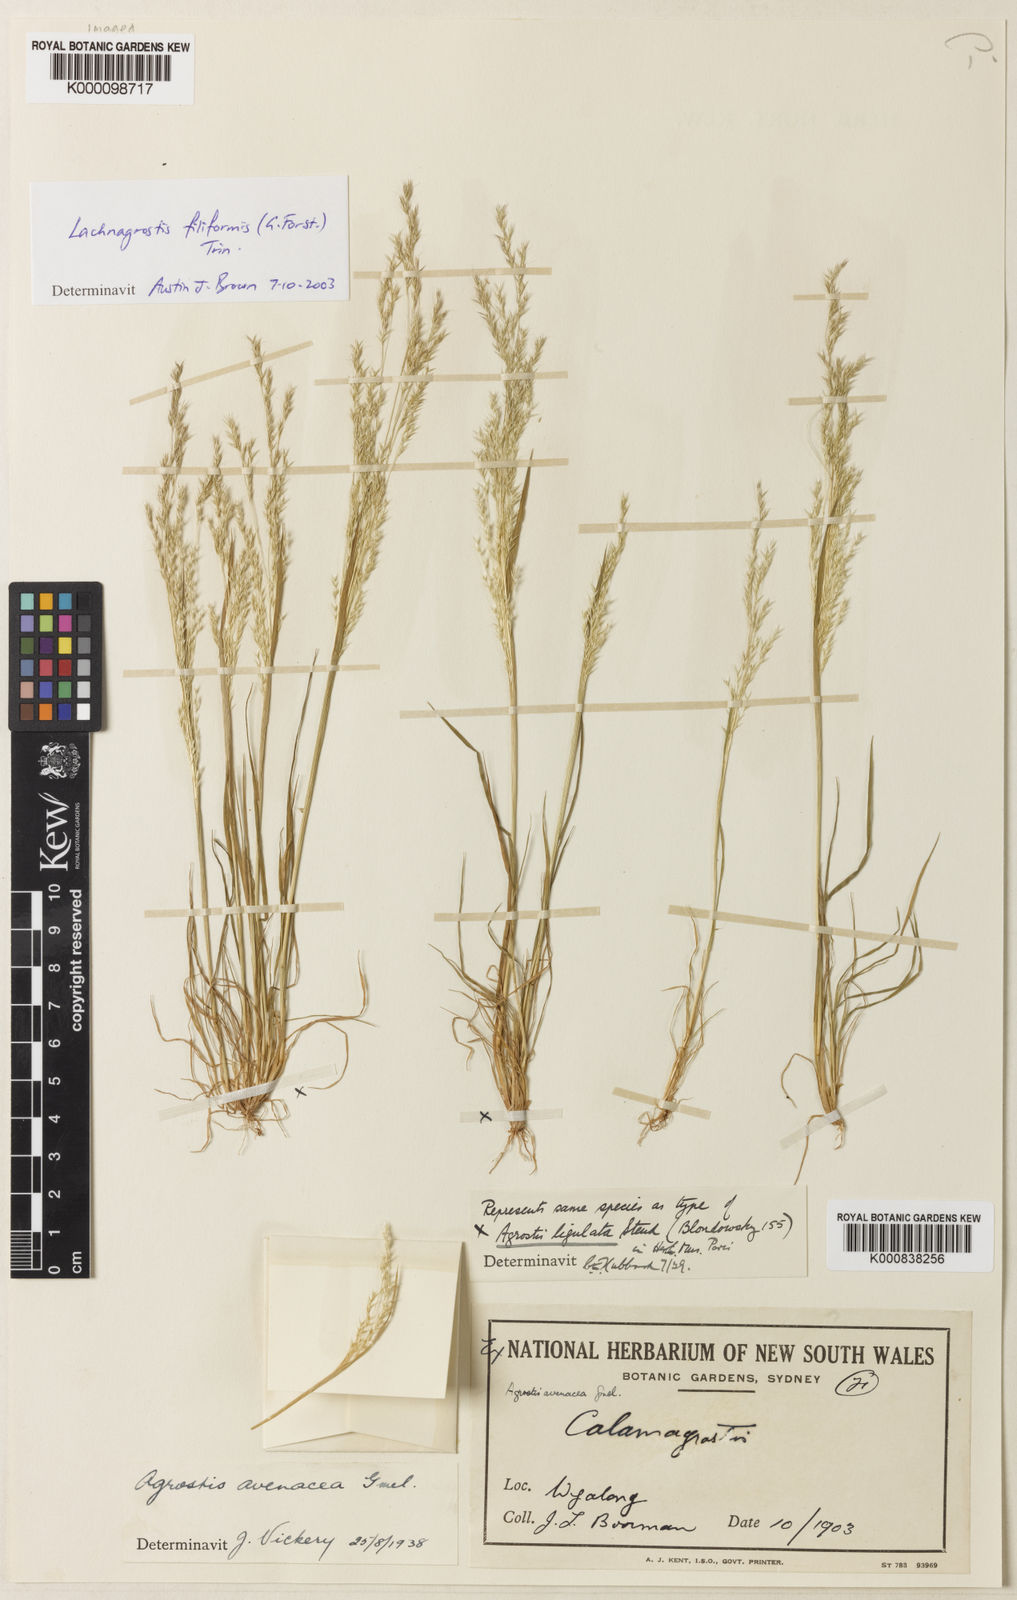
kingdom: Plantae
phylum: Tracheophyta
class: Liliopsida
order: Poales
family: Poaceae
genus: Lachnagrostis
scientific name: Lachnagrostis filiformis
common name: Bentgrass
